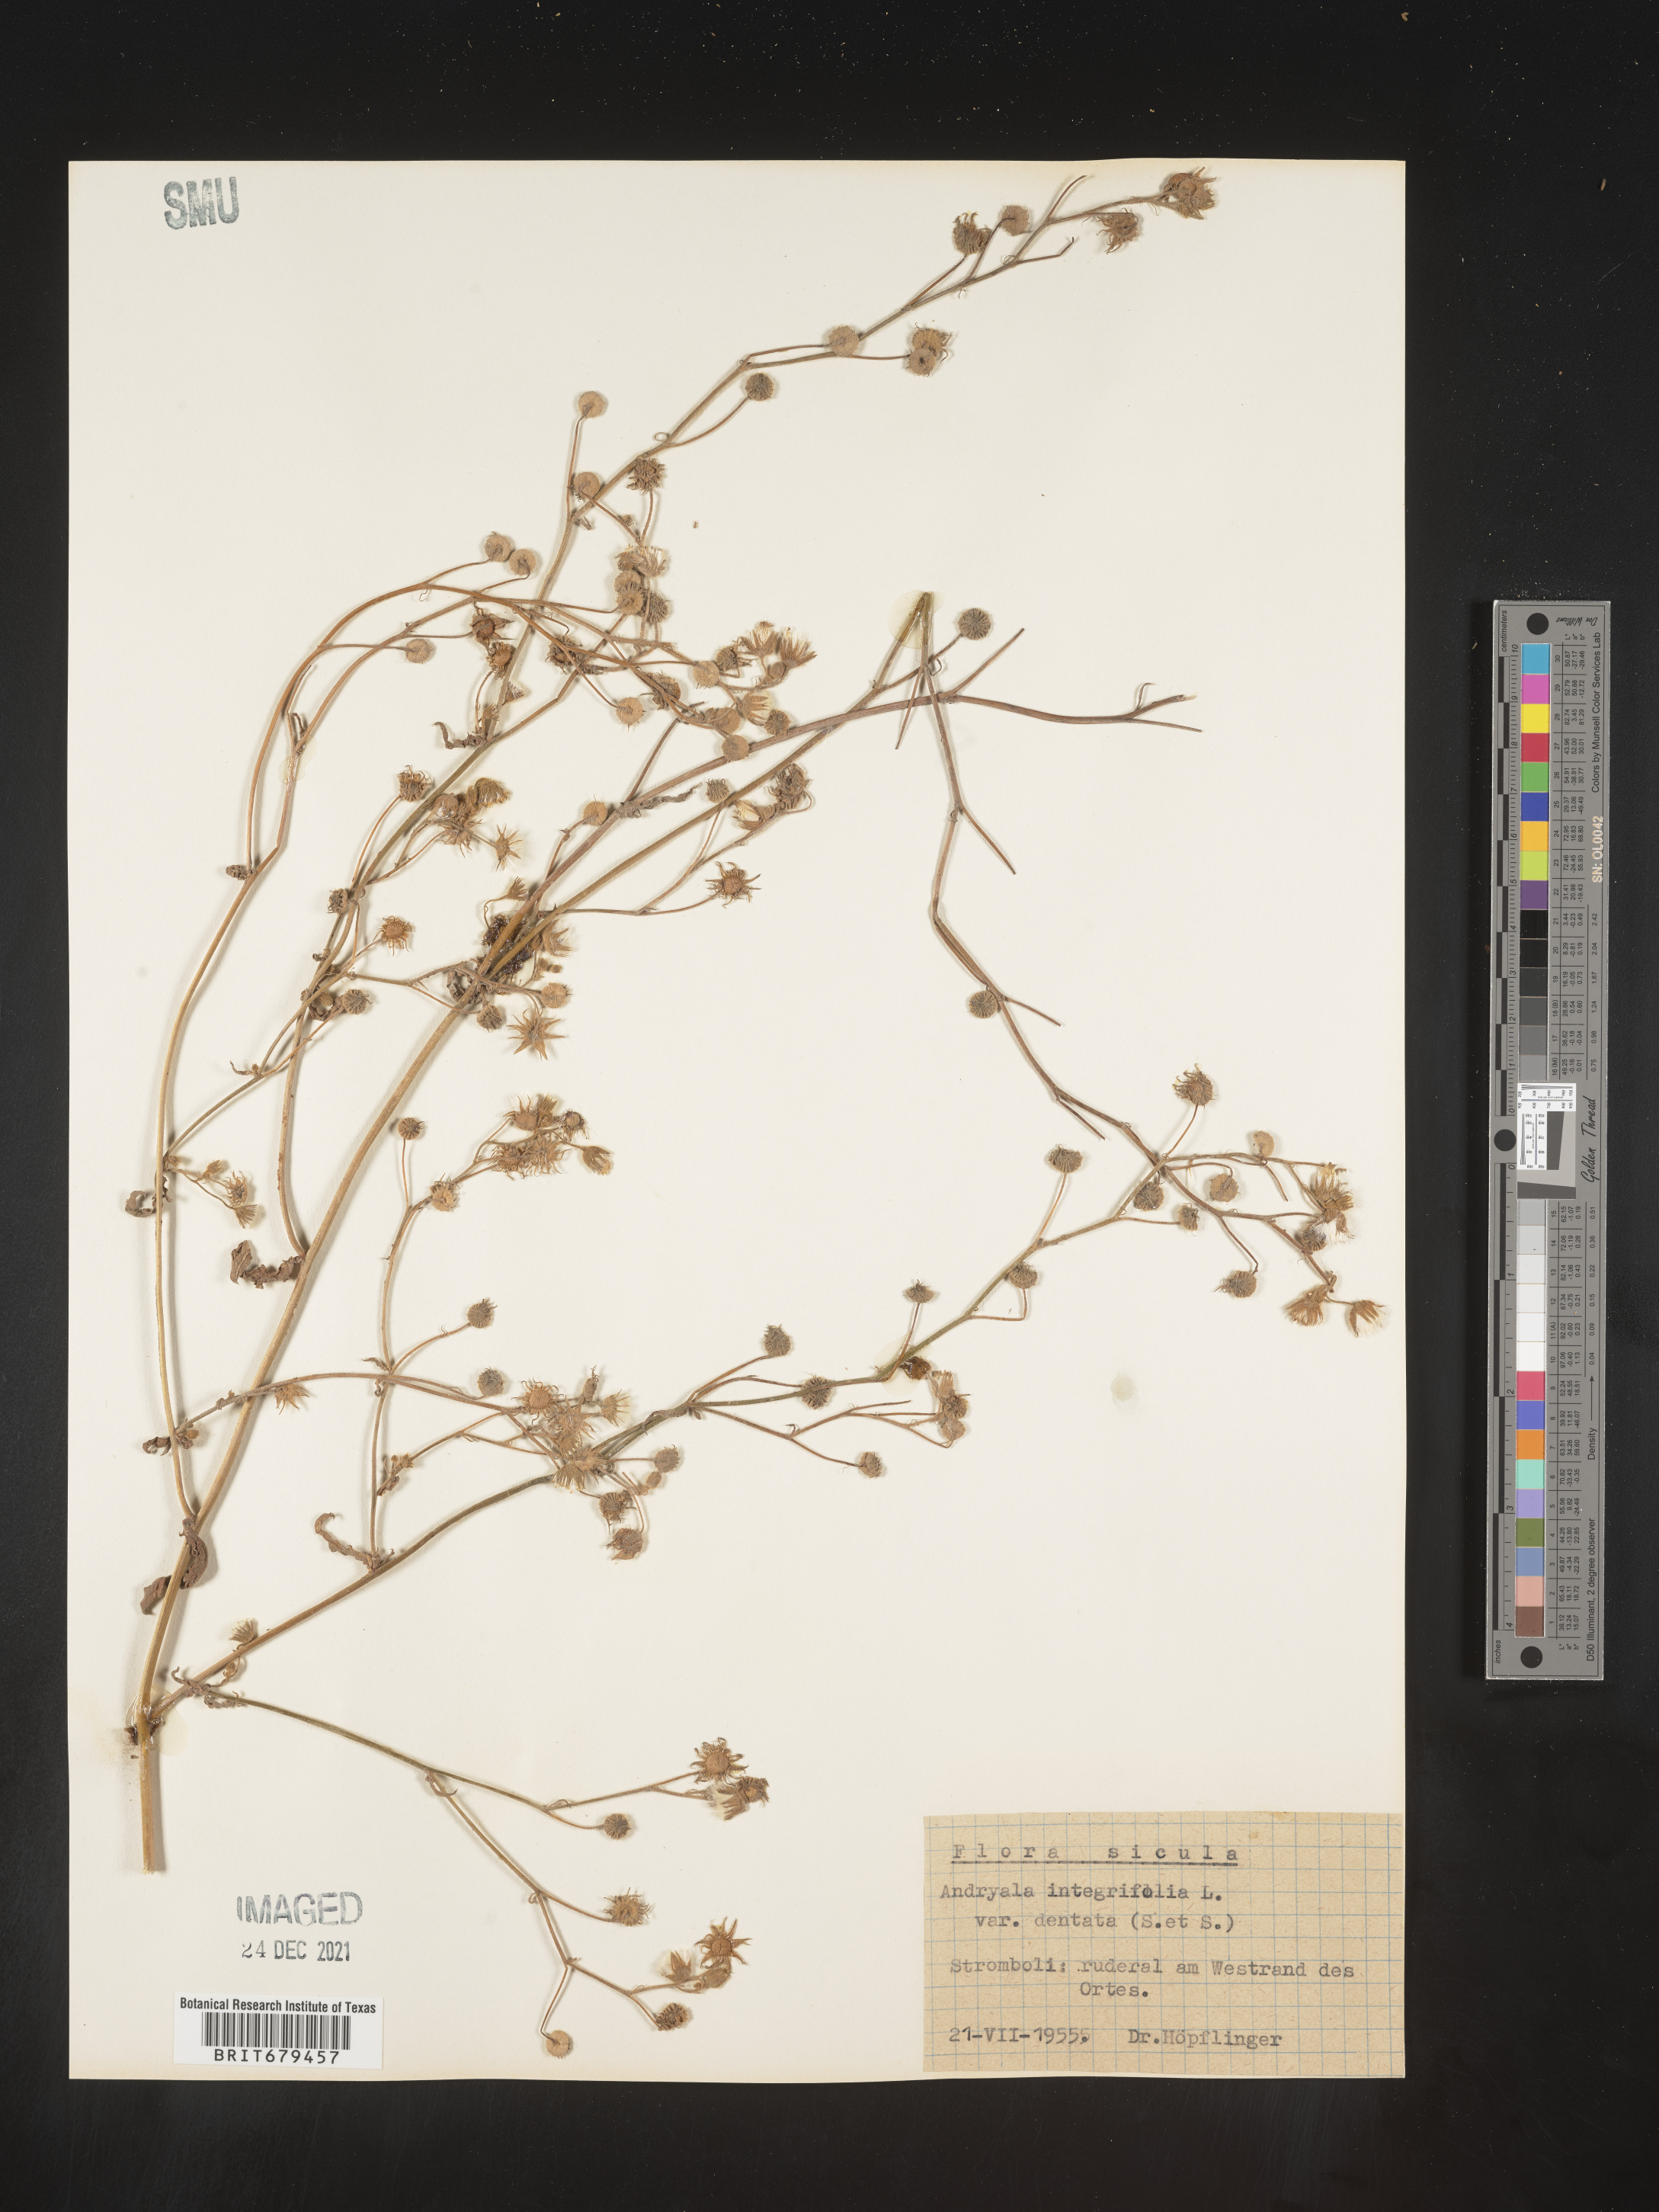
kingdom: Plantae
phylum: Tracheophyta
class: Magnoliopsida
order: Asterales
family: Asteraceae
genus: Andryala
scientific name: Andryala
